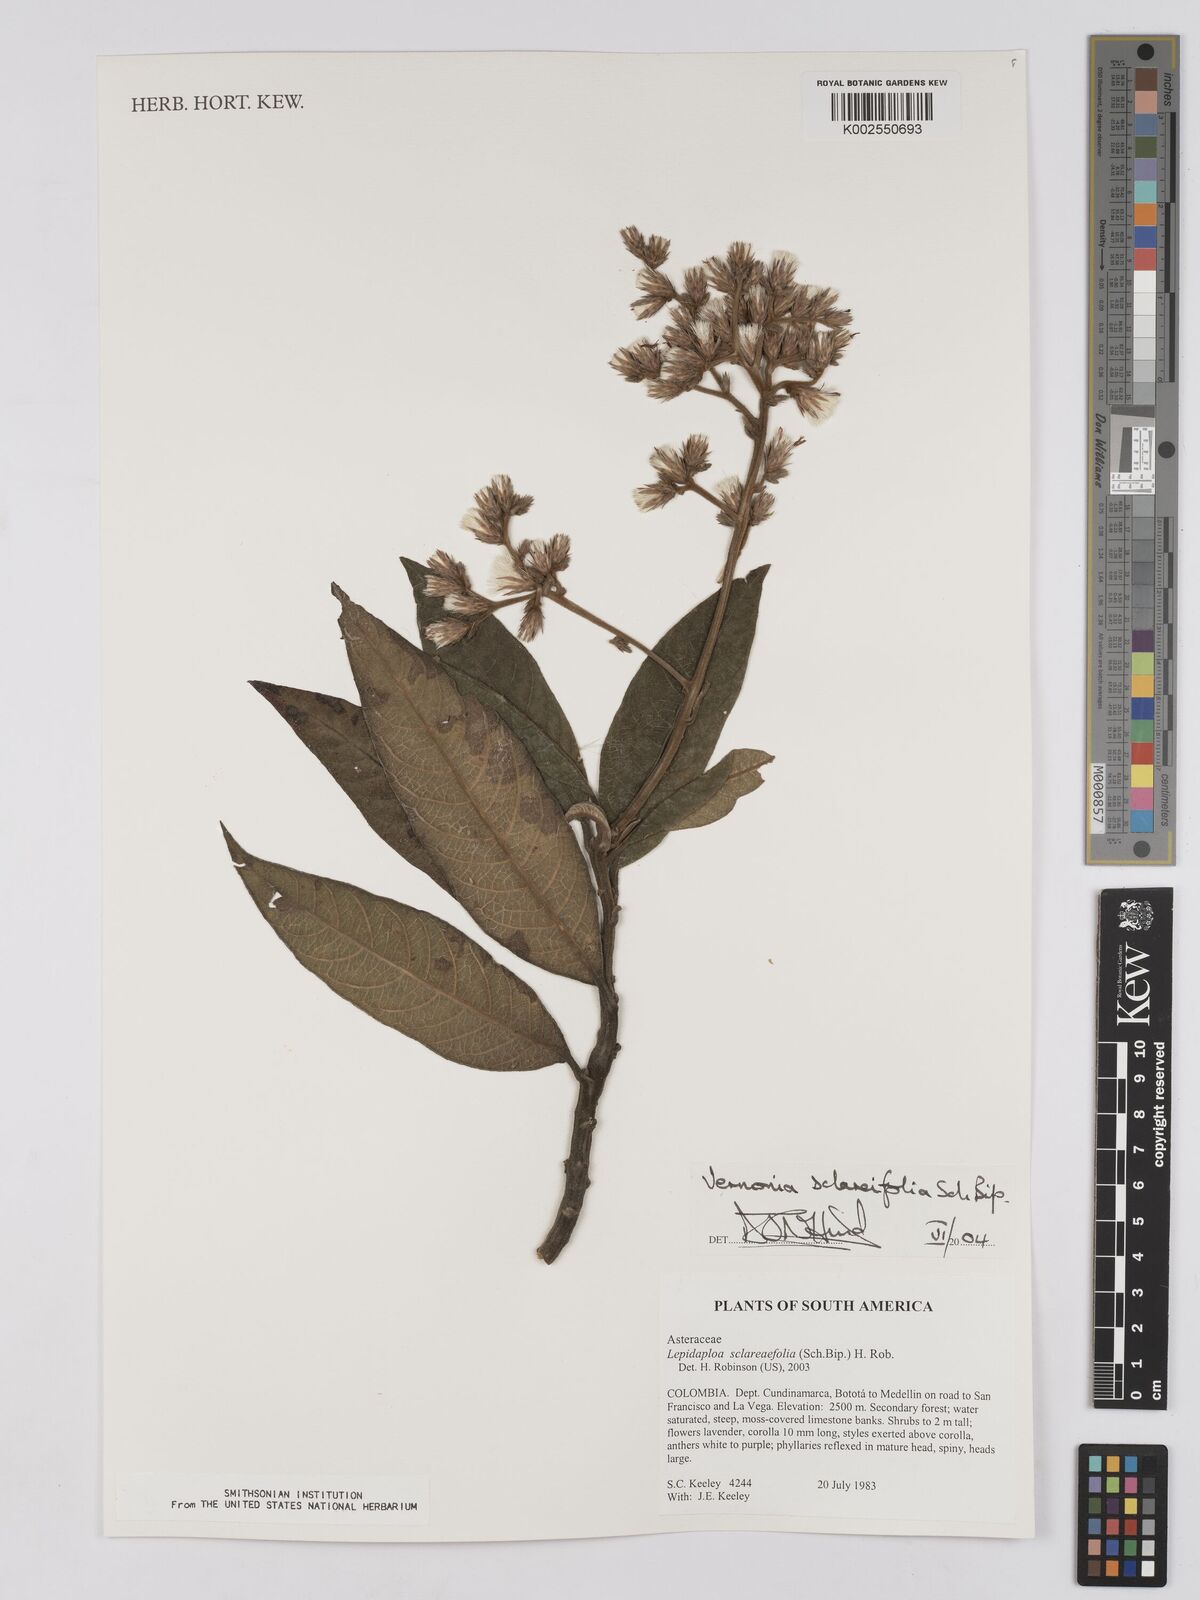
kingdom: Plantae
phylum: Tracheophyta
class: Magnoliopsida
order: Asterales
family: Asteraceae
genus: Lepidaploa
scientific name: Lepidaploa sclareifolia
